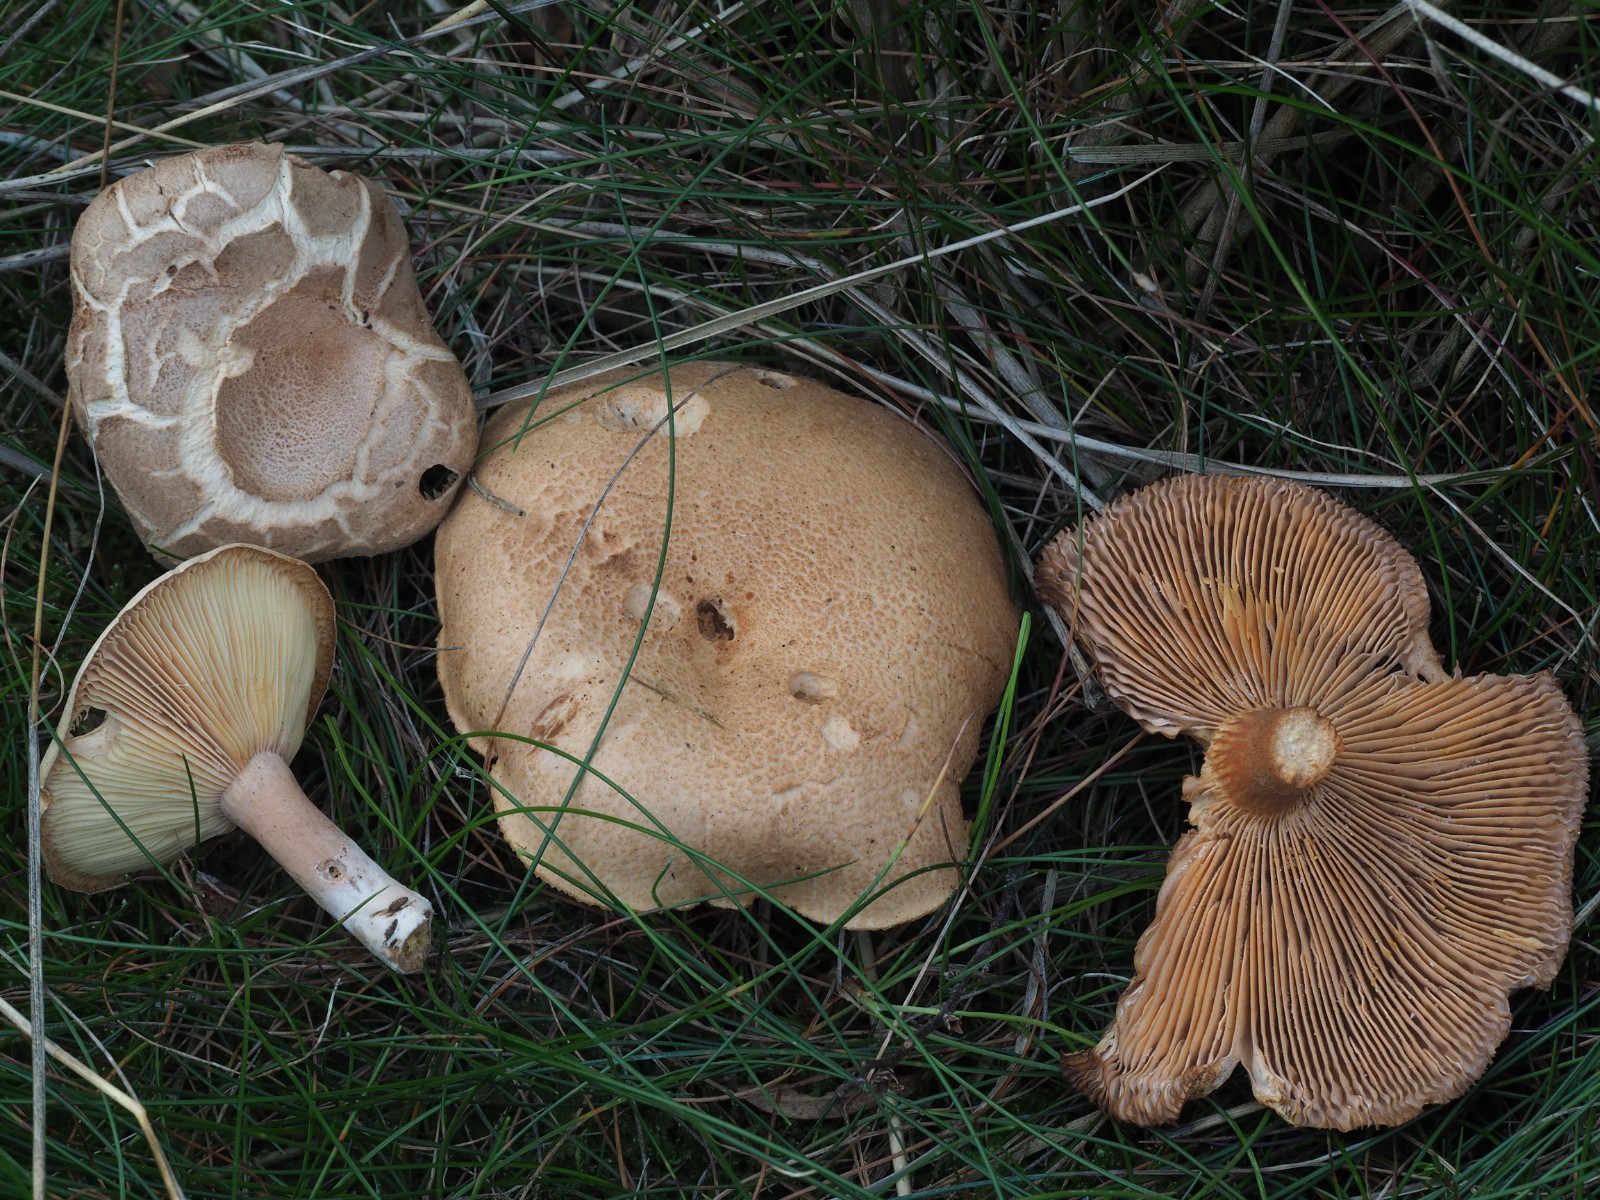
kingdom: Fungi
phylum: Basidiomycota
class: Agaricomycetes
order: Russulales
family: Russulaceae
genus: Lactarius
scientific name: Lactarius helvus
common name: mose-mælkehat
